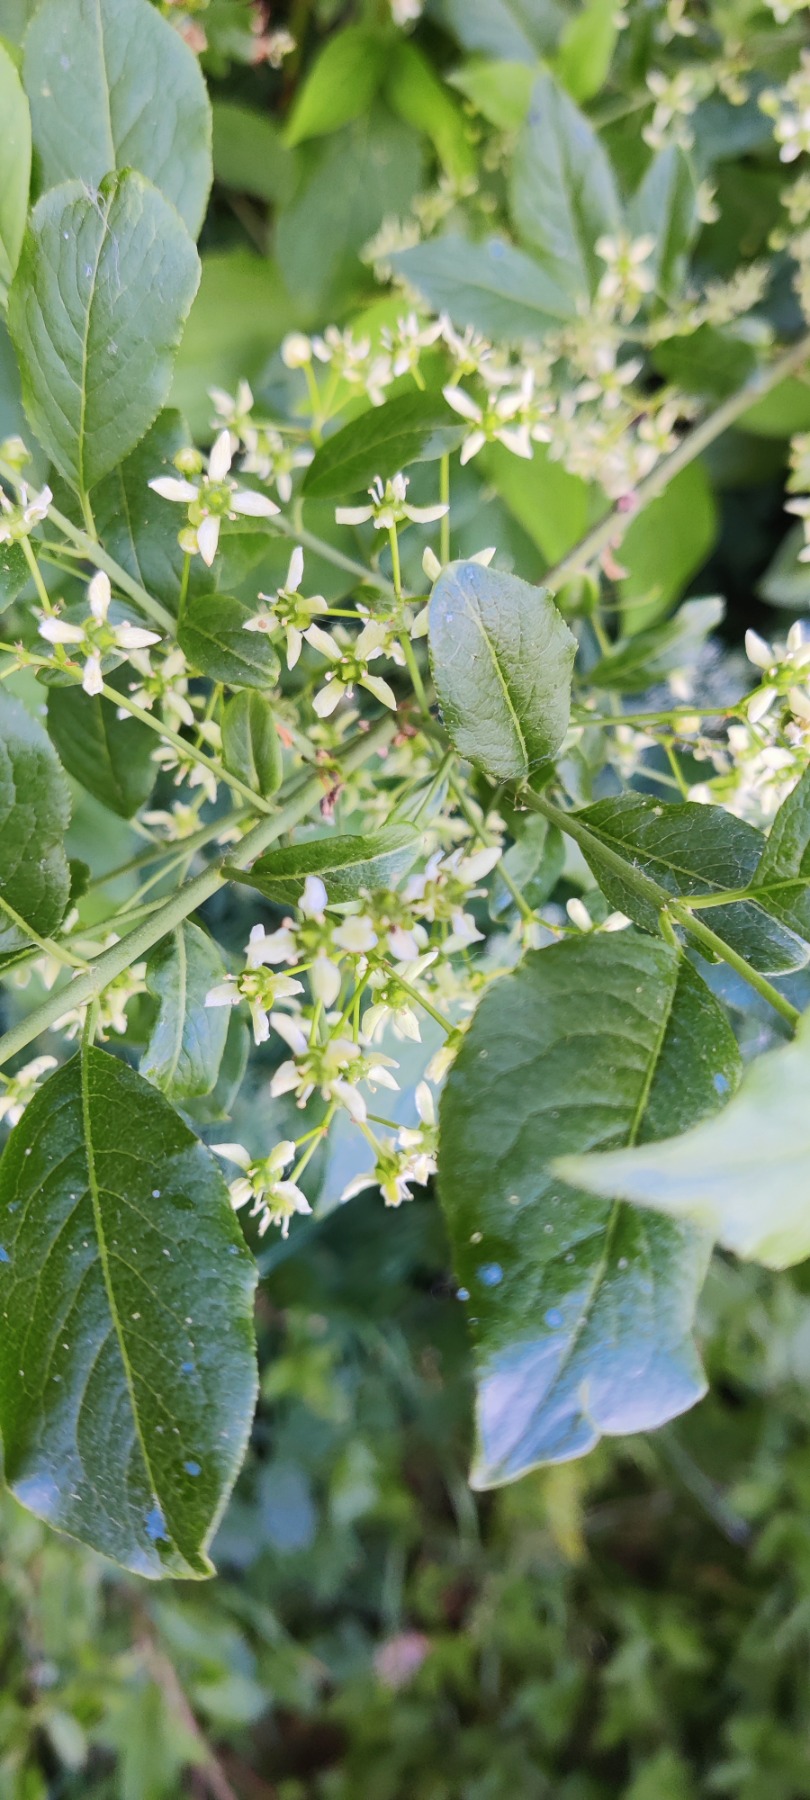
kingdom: Plantae
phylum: Tracheophyta
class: Magnoliopsida
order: Celastrales
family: Celastraceae
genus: Euonymus
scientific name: Euonymus europaeus
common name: Benved
